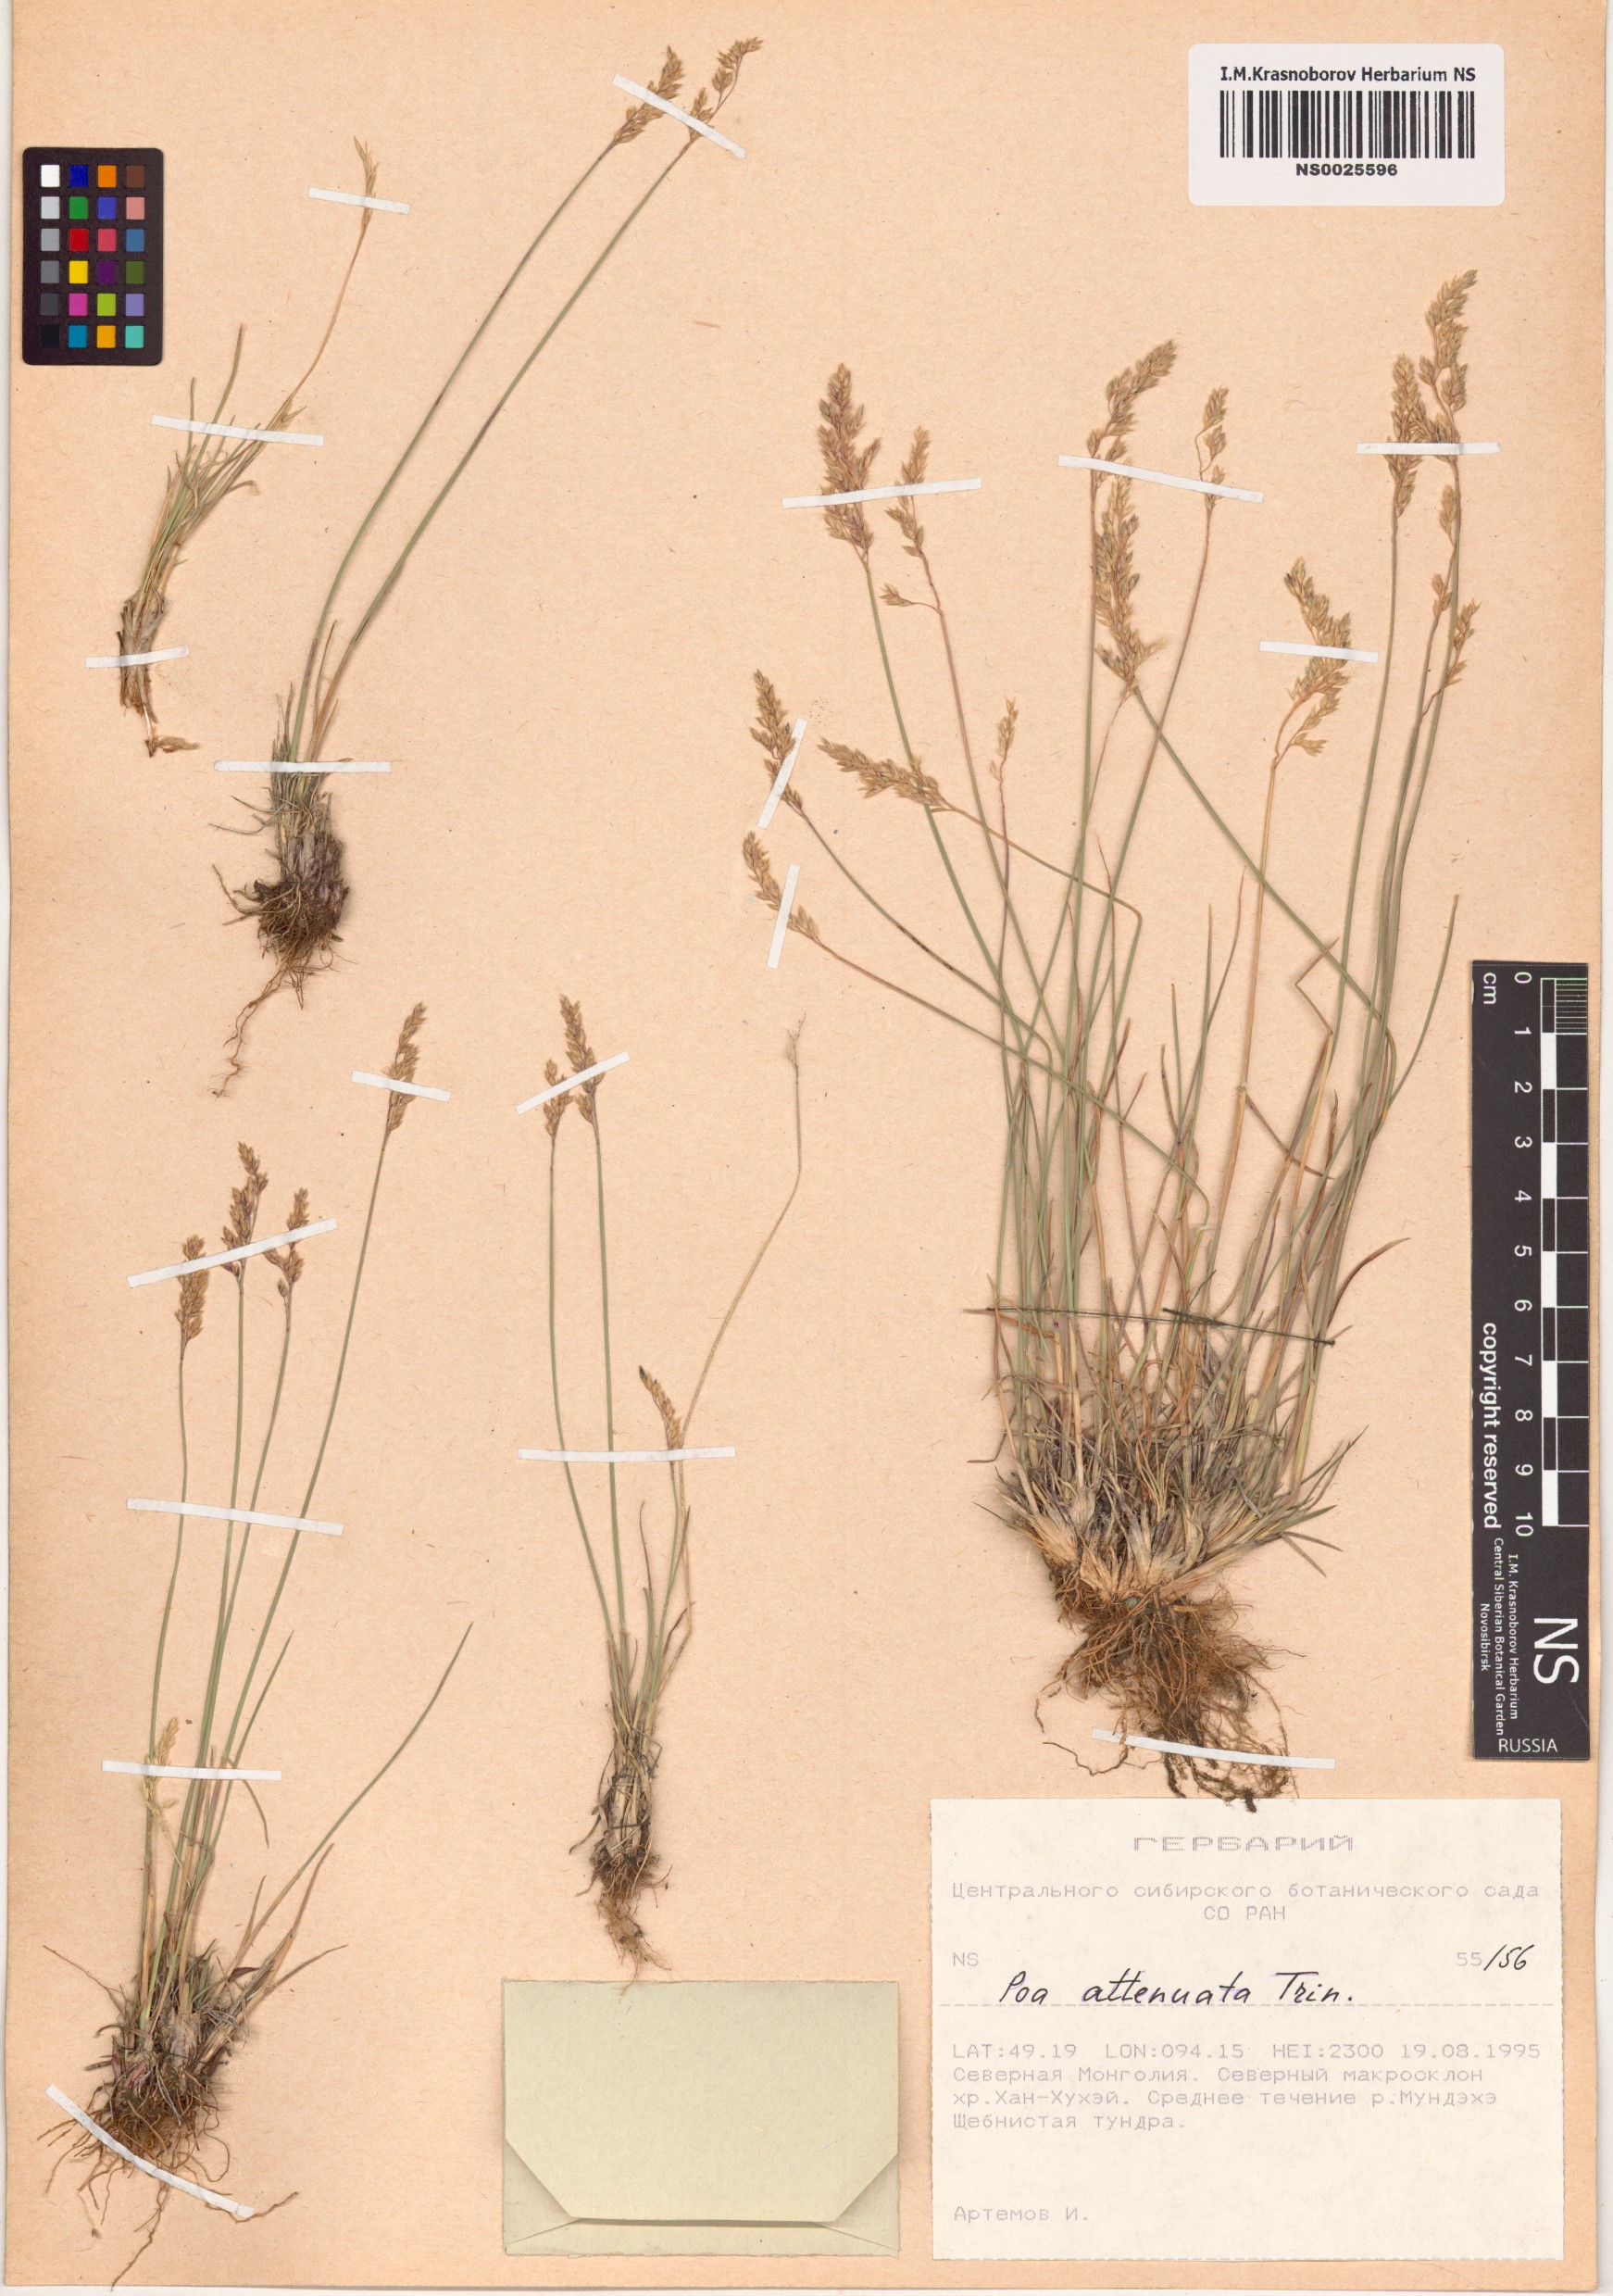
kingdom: Plantae
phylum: Tracheophyta
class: Liliopsida
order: Poales
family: Poaceae
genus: Poa
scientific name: Poa attenuata
